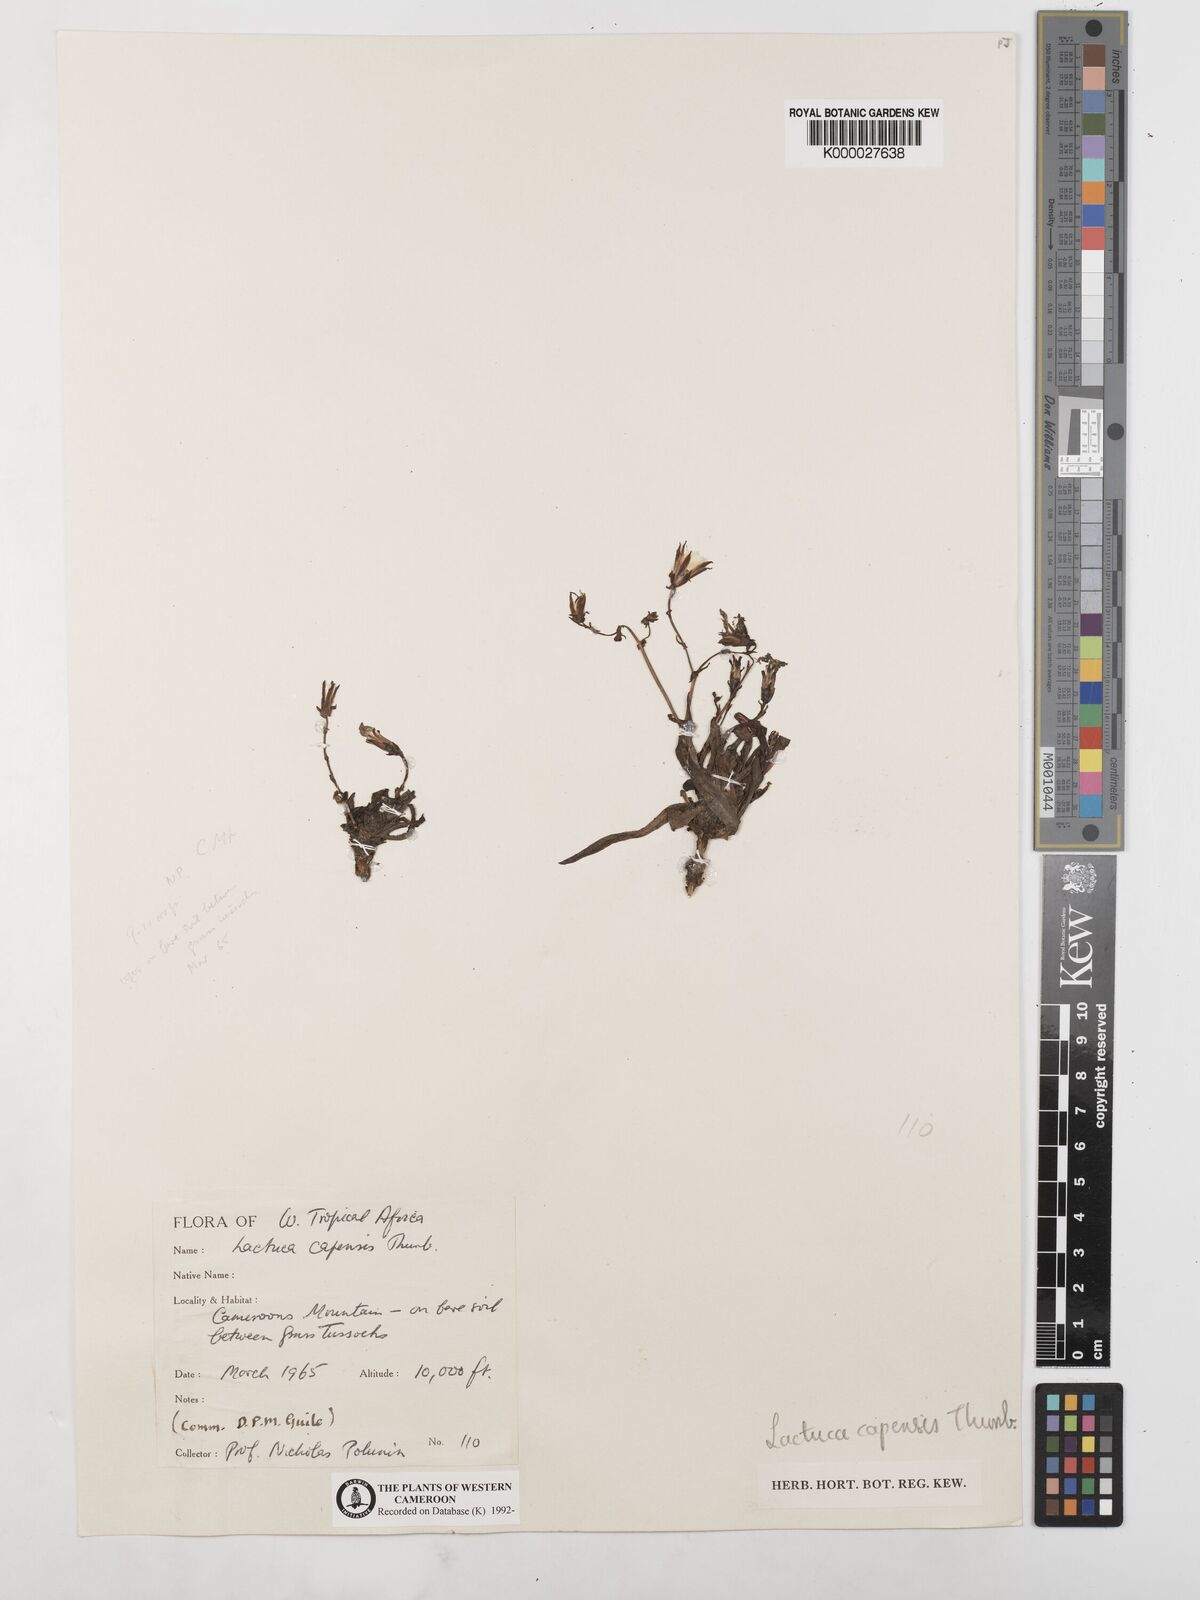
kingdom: Plantae
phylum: Tracheophyta
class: Magnoliopsida
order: Asterales
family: Asteraceae
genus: Lactuca
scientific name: Lactuca inermis
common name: Wild lettuce
